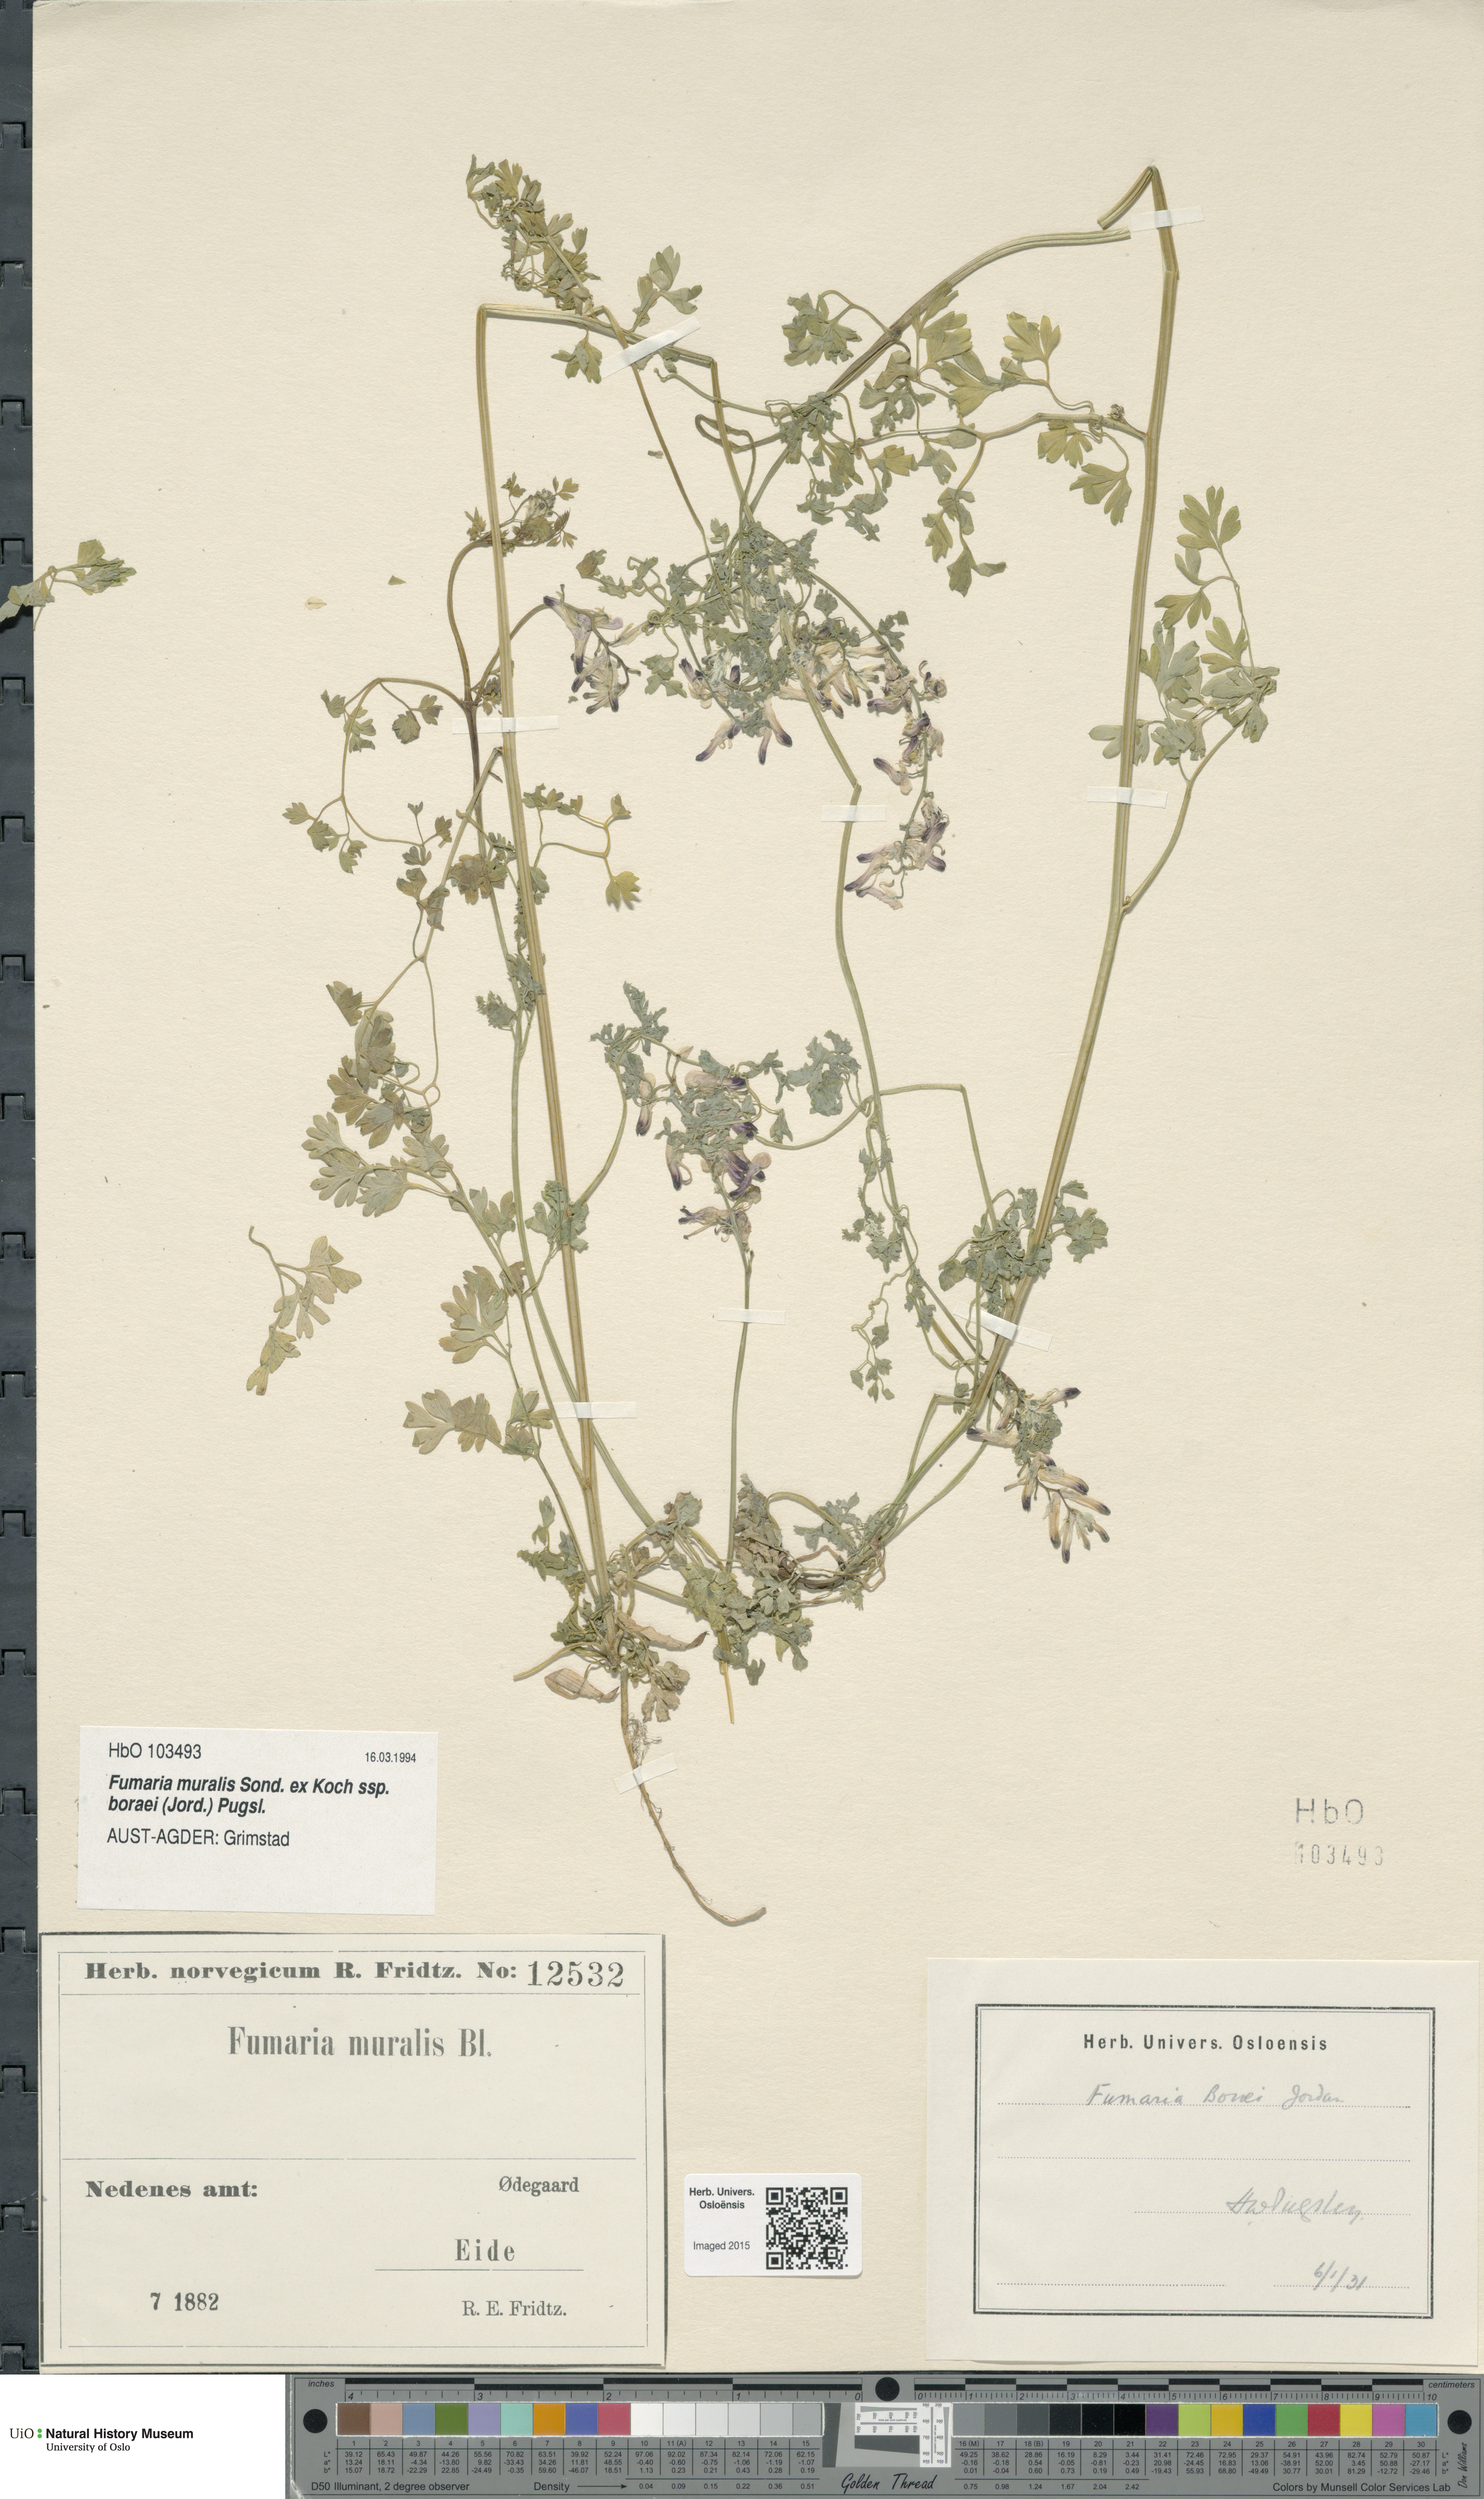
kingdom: Plantae
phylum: Tracheophyta
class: Magnoliopsida
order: Ranunculales
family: Papaveraceae
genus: Fumaria
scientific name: Fumaria muralis
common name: Common ramping-fumitory
